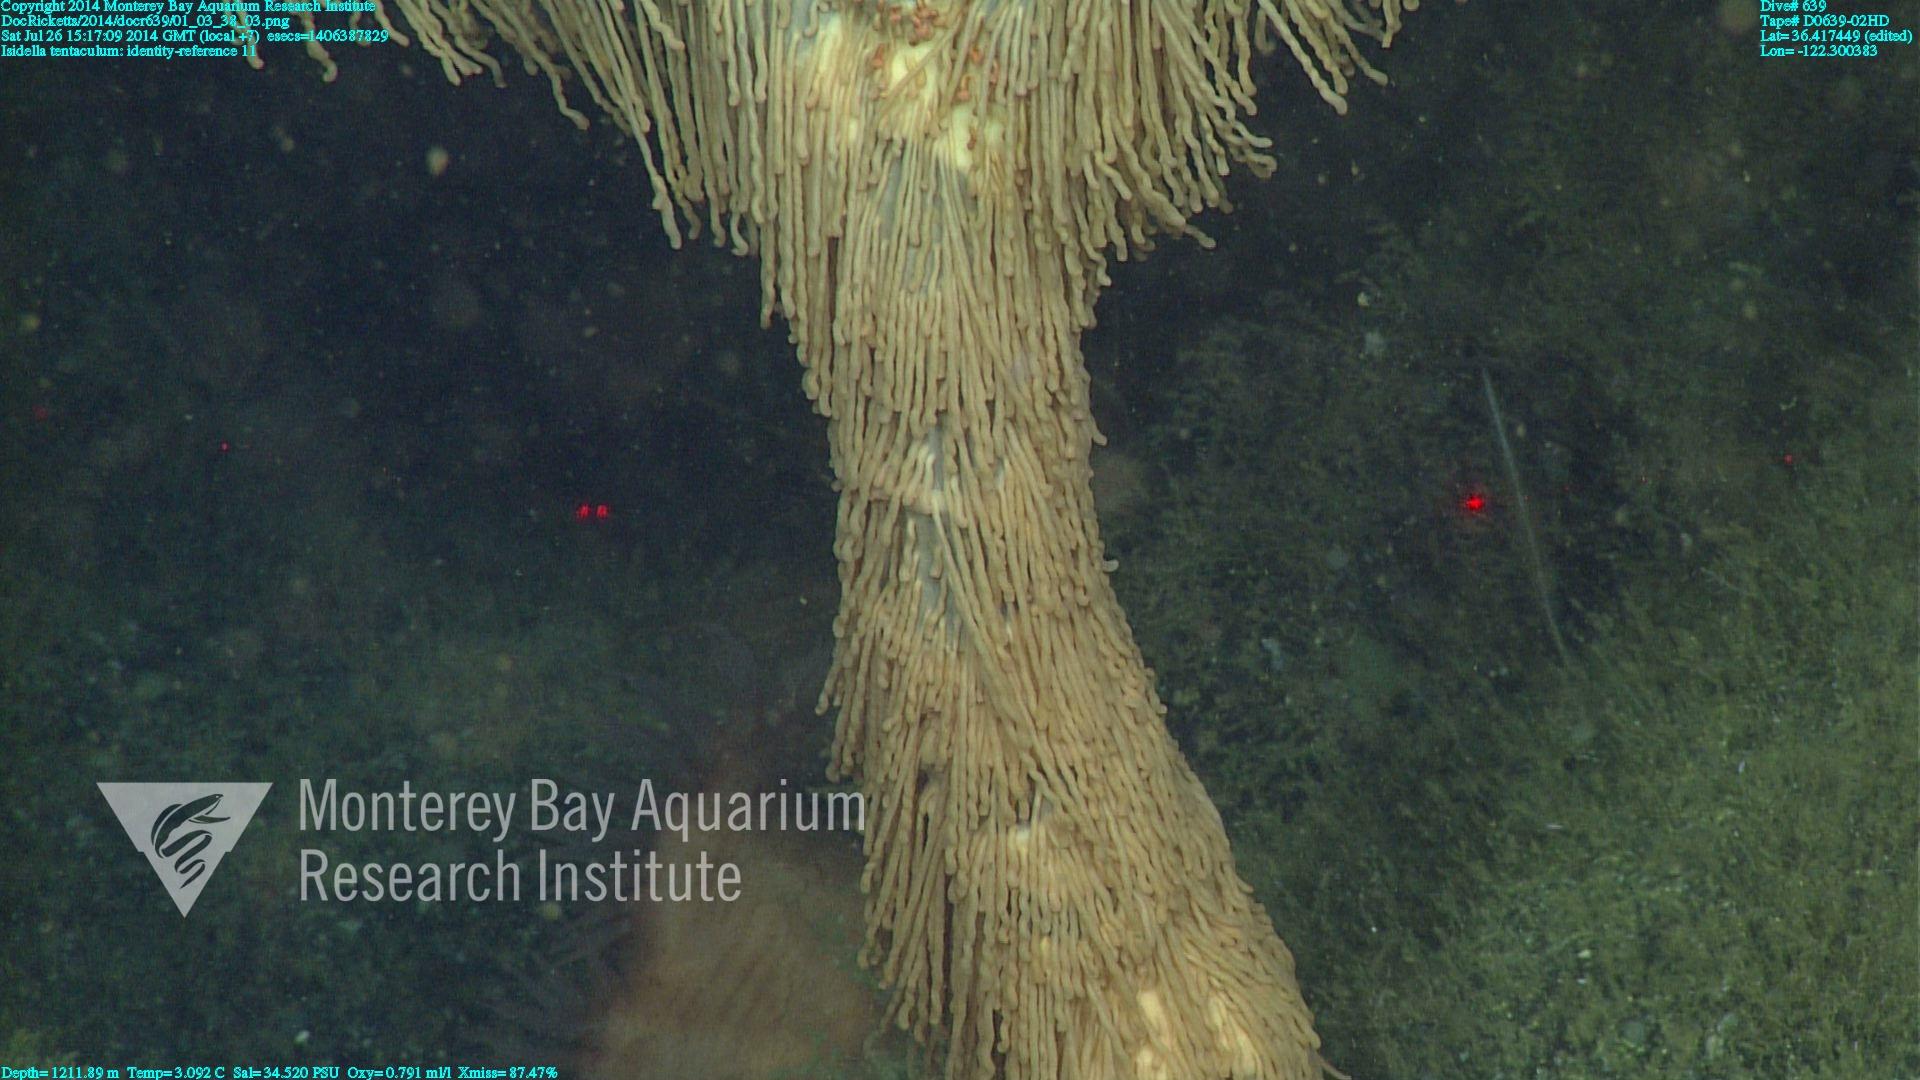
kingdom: Animalia
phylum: Cnidaria
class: Anthozoa
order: Scleralcyonacea
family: Keratoisididae
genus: Isidella
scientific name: Isidella tentaculum
